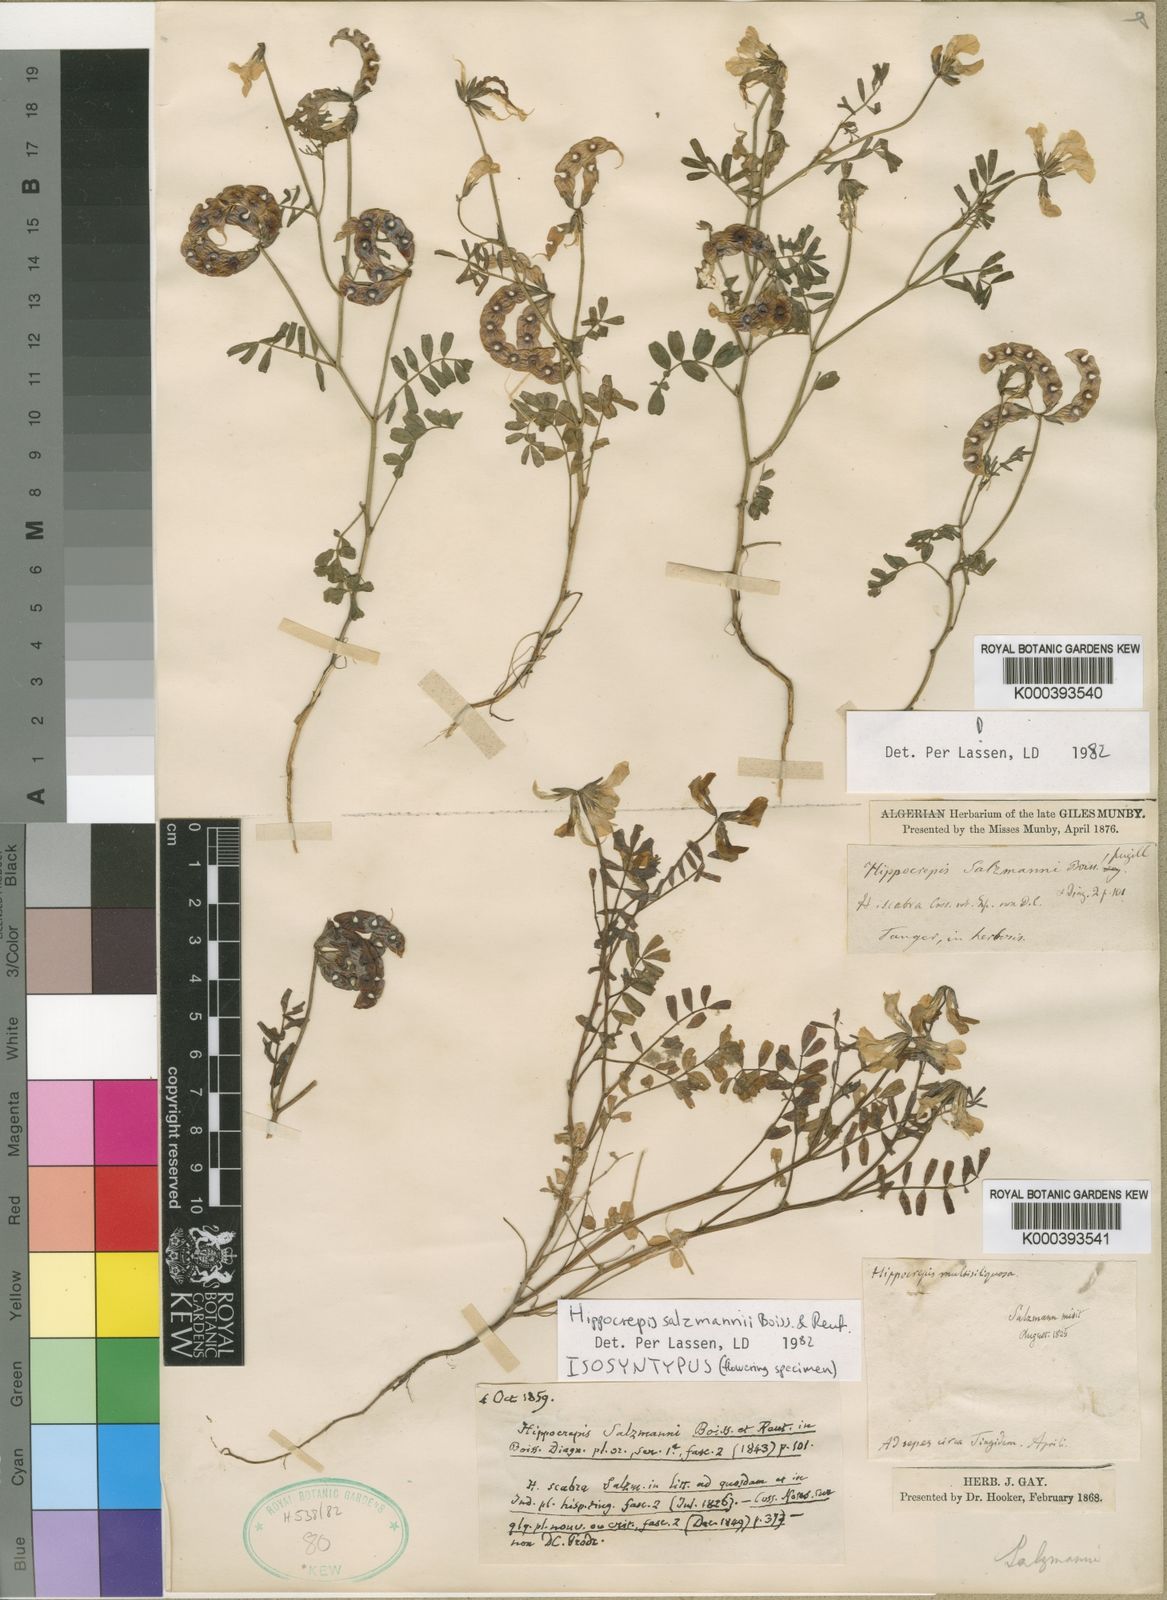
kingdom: Plantae
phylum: Tracheophyta
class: Magnoliopsida
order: Fabales
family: Fabaceae
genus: Hippocrepis
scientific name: Hippocrepis salzmannii
